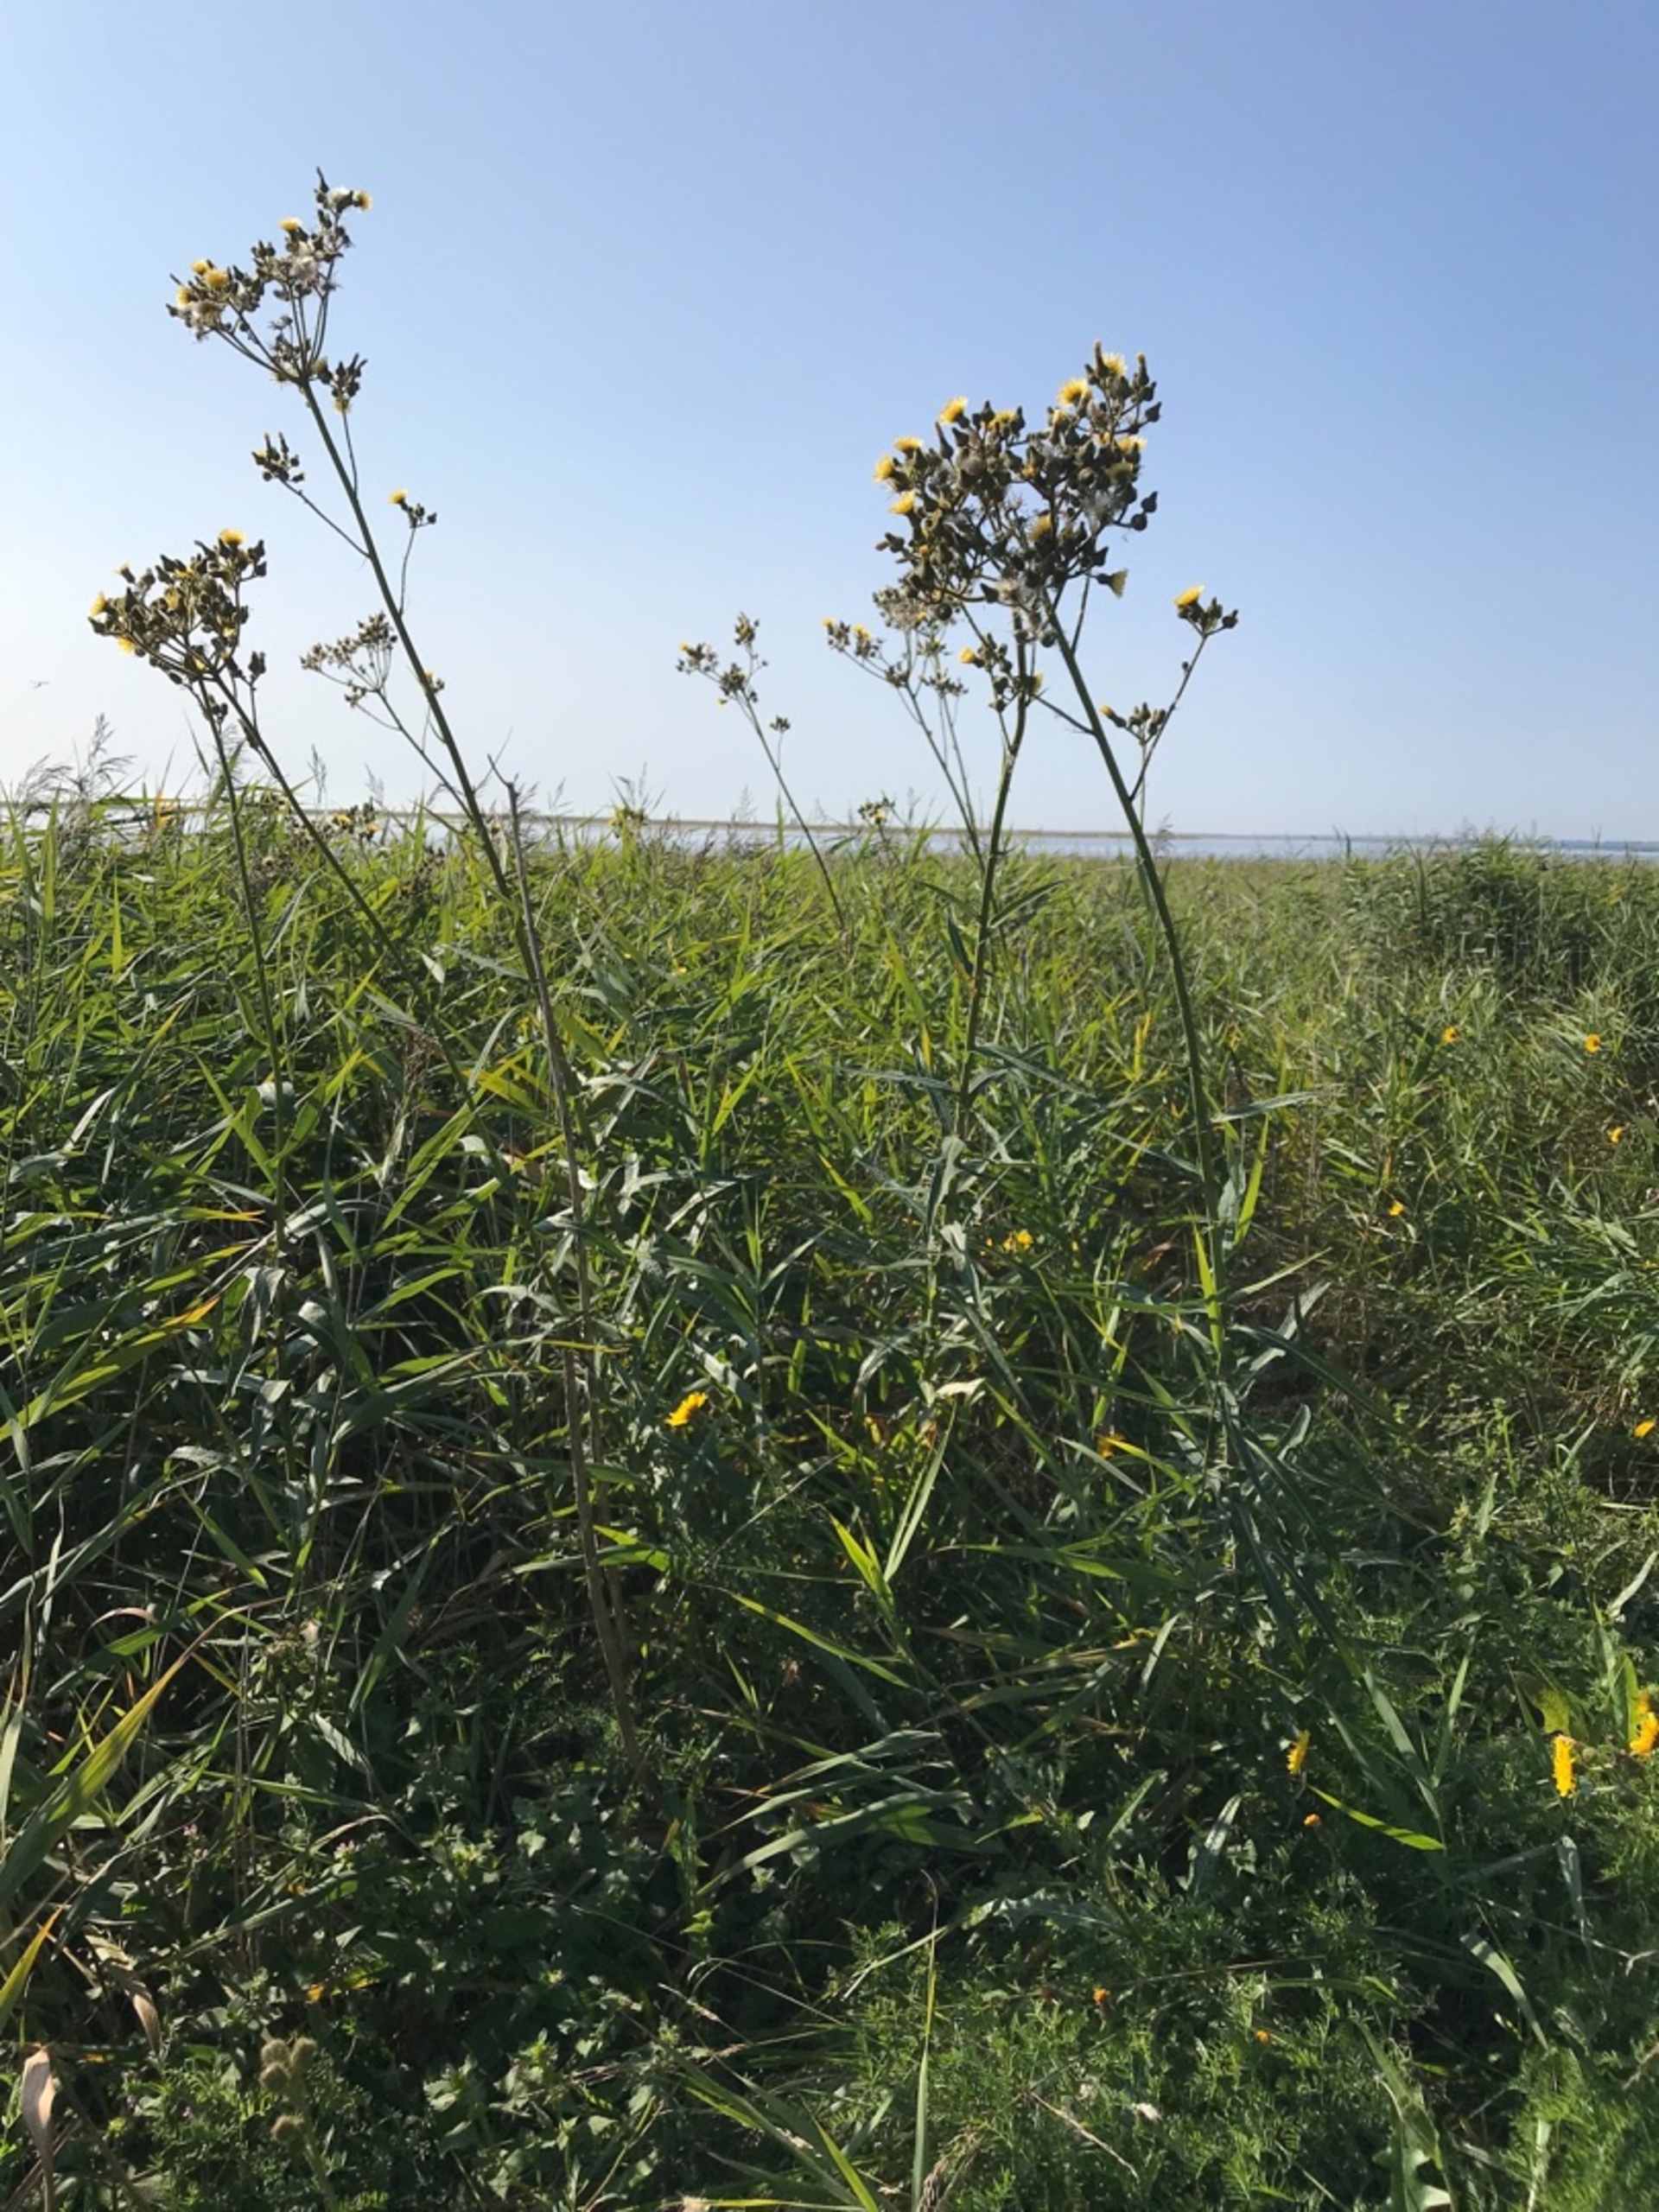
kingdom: Plantae
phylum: Tracheophyta
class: Magnoliopsida
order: Asterales
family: Asteraceae
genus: Sonchus
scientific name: Sonchus palustris
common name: Kær-svinemælk
